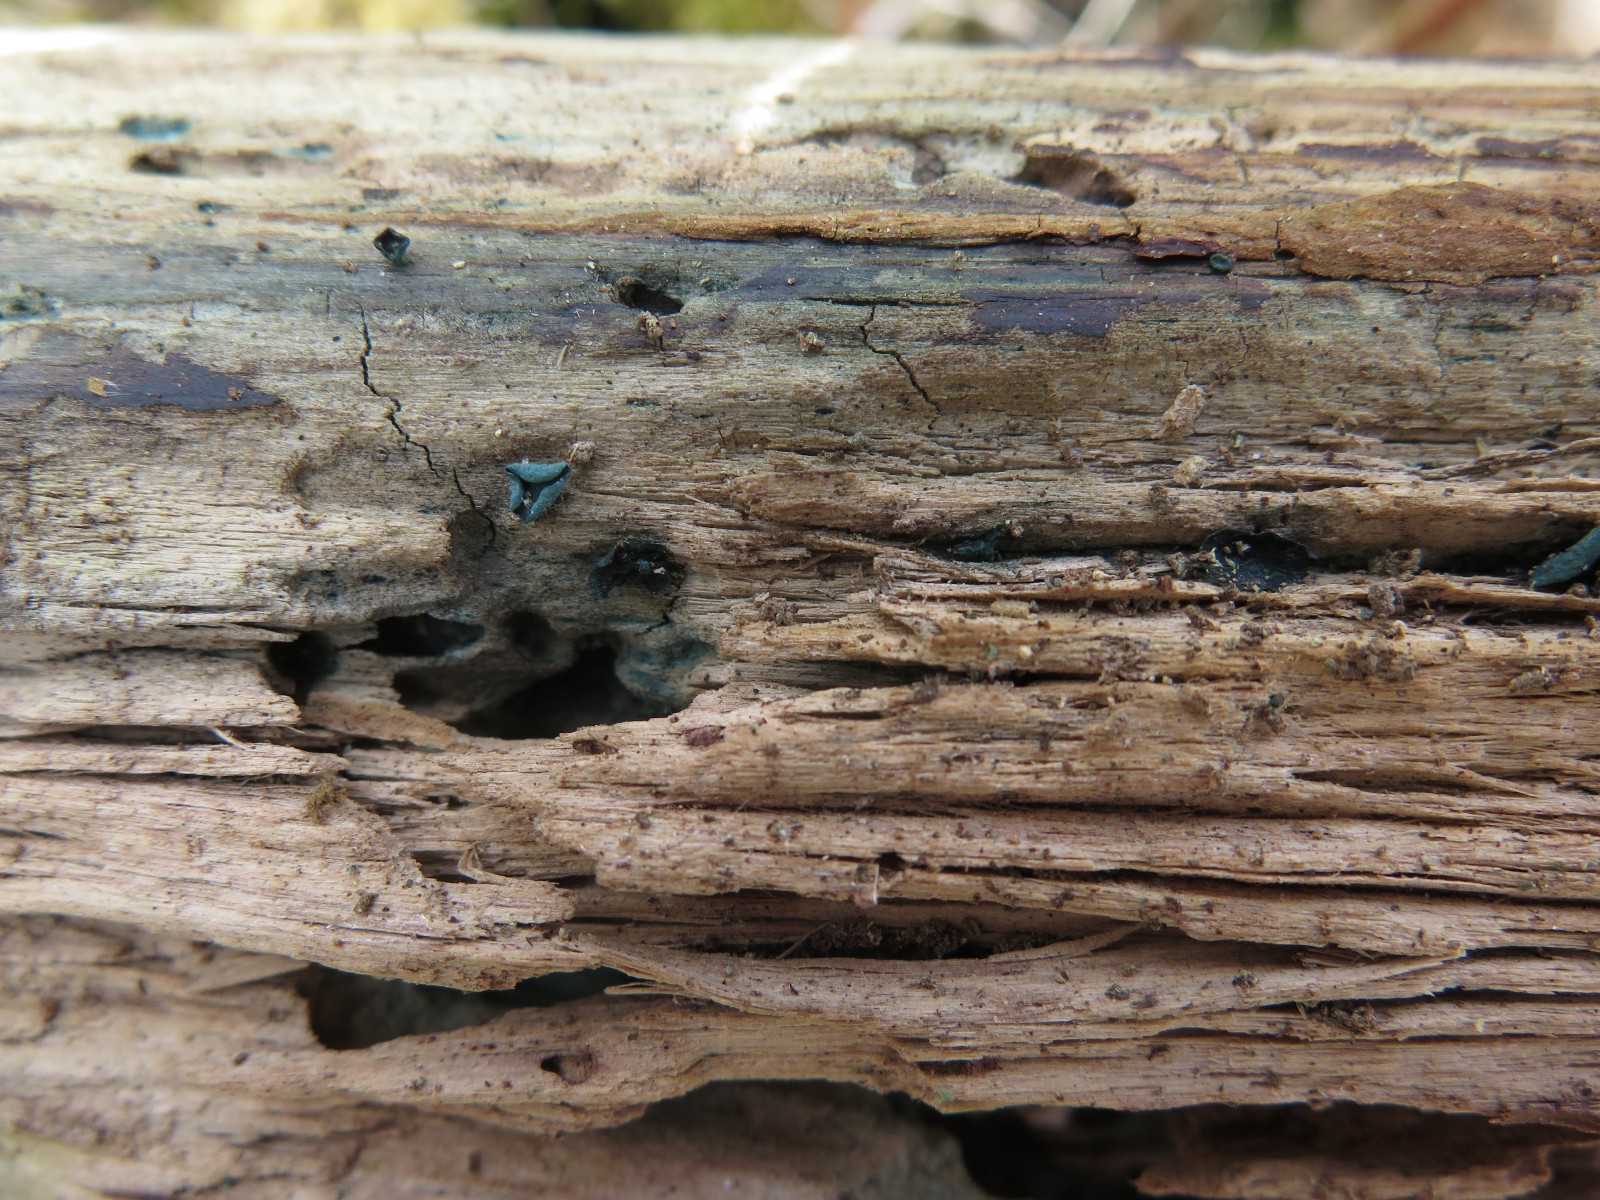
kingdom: Fungi
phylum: Ascomycota
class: Leotiomycetes
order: Helotiales
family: Chlorociboriaceae
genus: Chlorociboria
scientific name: Chlorociboria aeruginascens
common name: almindelig grønskive
